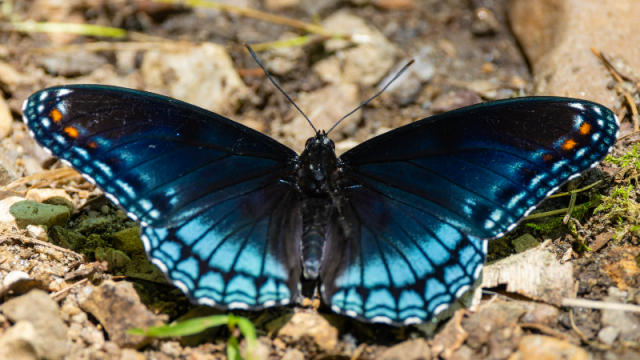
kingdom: Animalia
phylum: Arthropoda
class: Insecta
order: Lepidoptera
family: Nymphalidae
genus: Limenitis
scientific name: Limenitis arthemis
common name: Red-spotted Admiral
